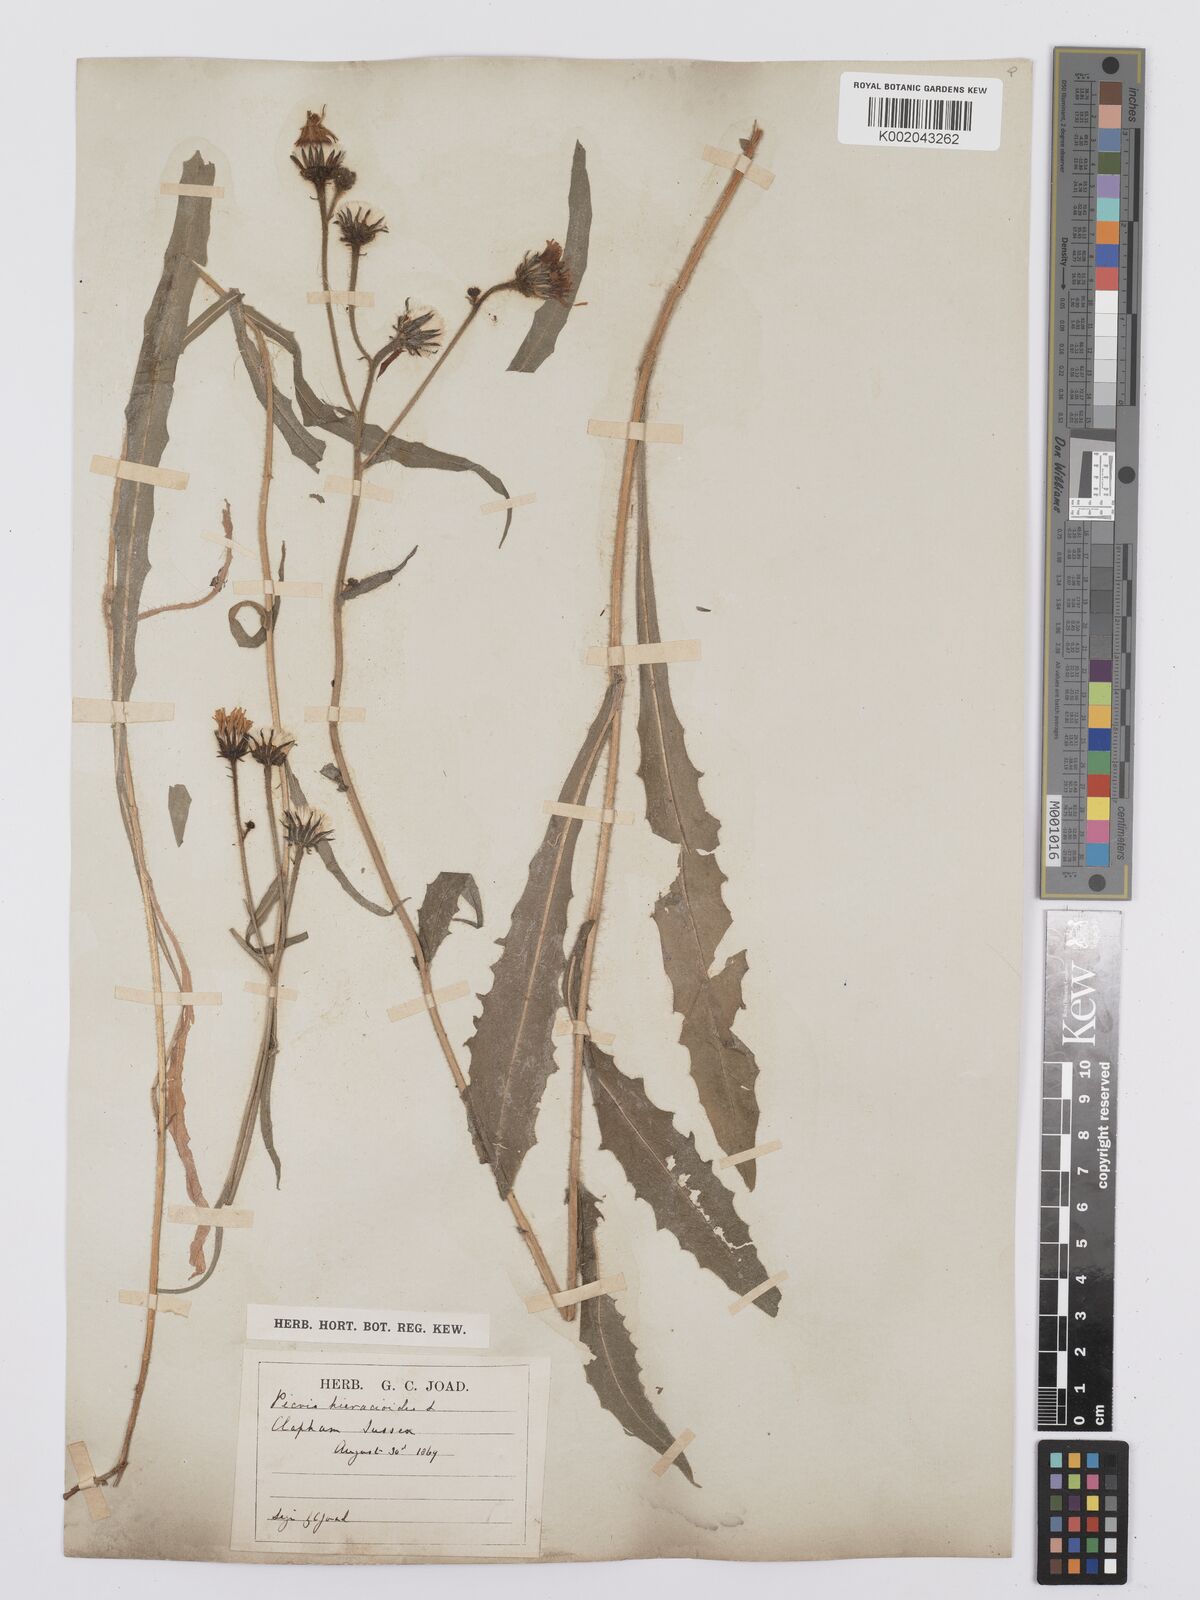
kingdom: Plantae
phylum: Tracheophyta
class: Magnoliopsida
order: Asterales
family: Asteraceae
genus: Picris
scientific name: Picris hieracioides
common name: Hawkweed oxtongue
